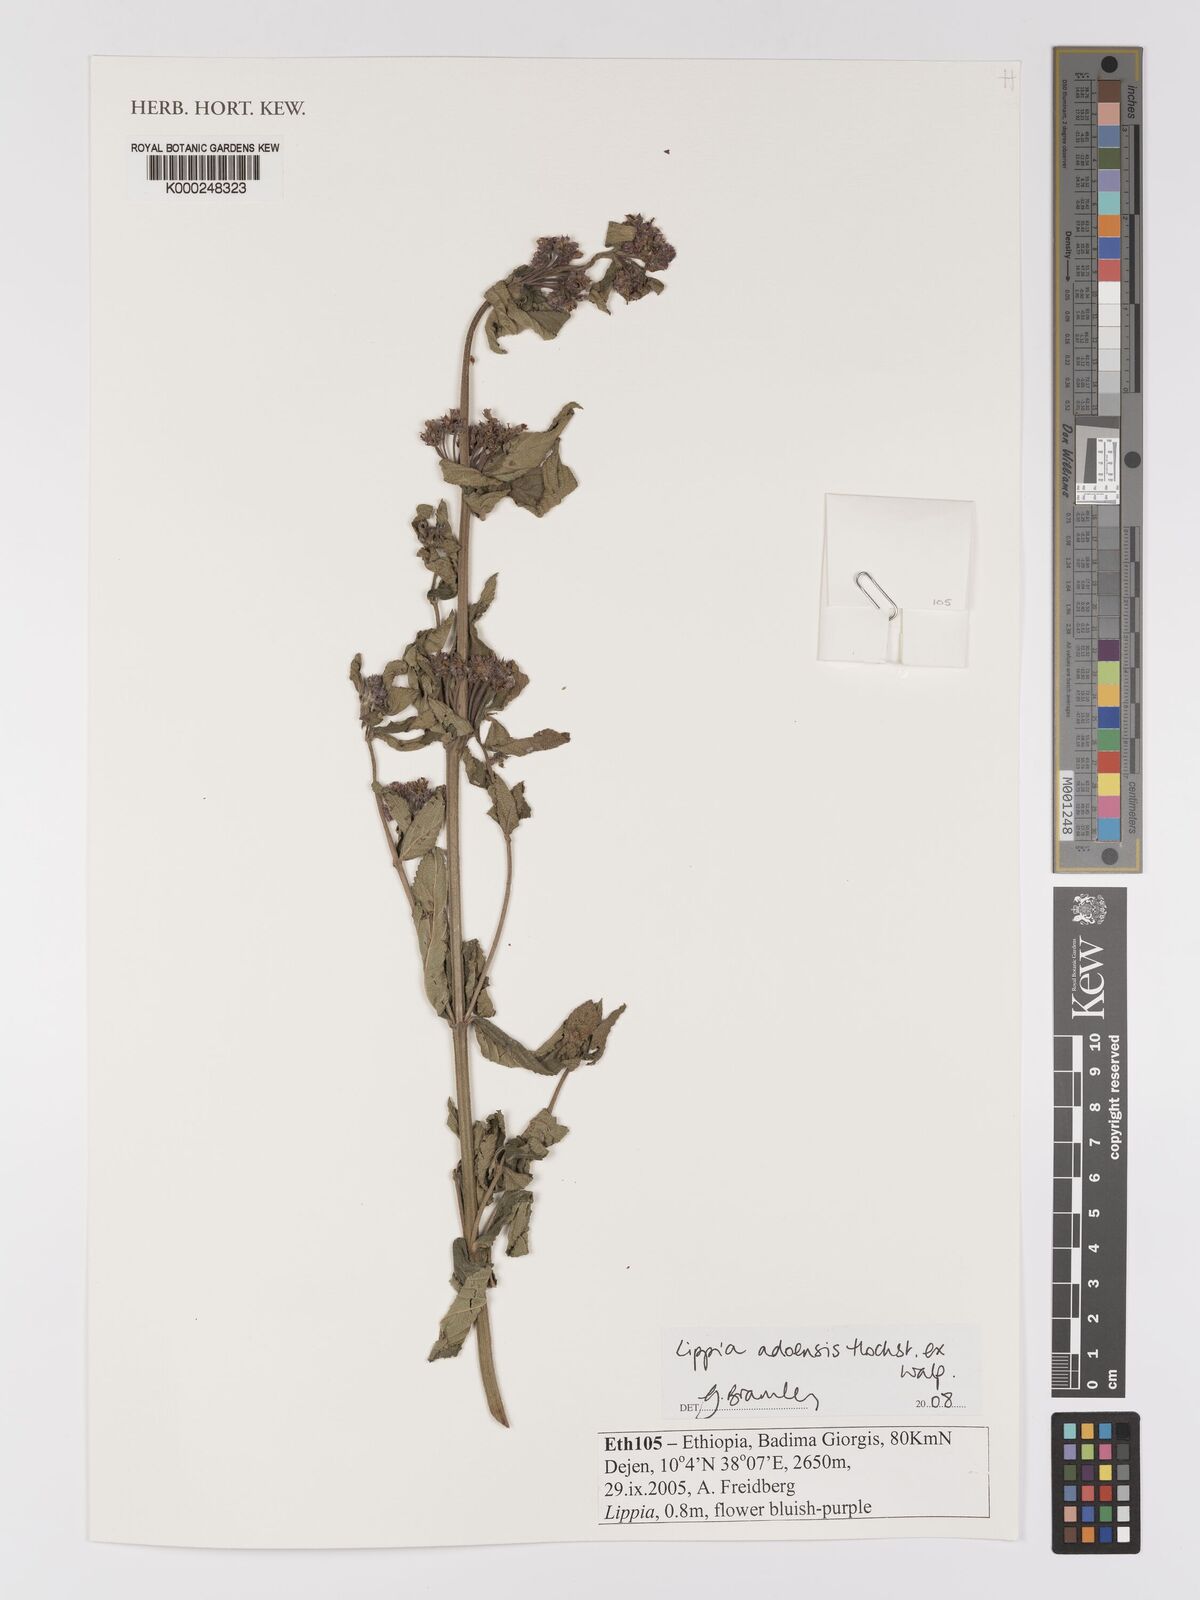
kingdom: Plantae
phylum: Tracheophyta
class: Magnoliopsida
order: Lamiales
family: Verbenaceae
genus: Lippia
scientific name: Lippia abyssinica
